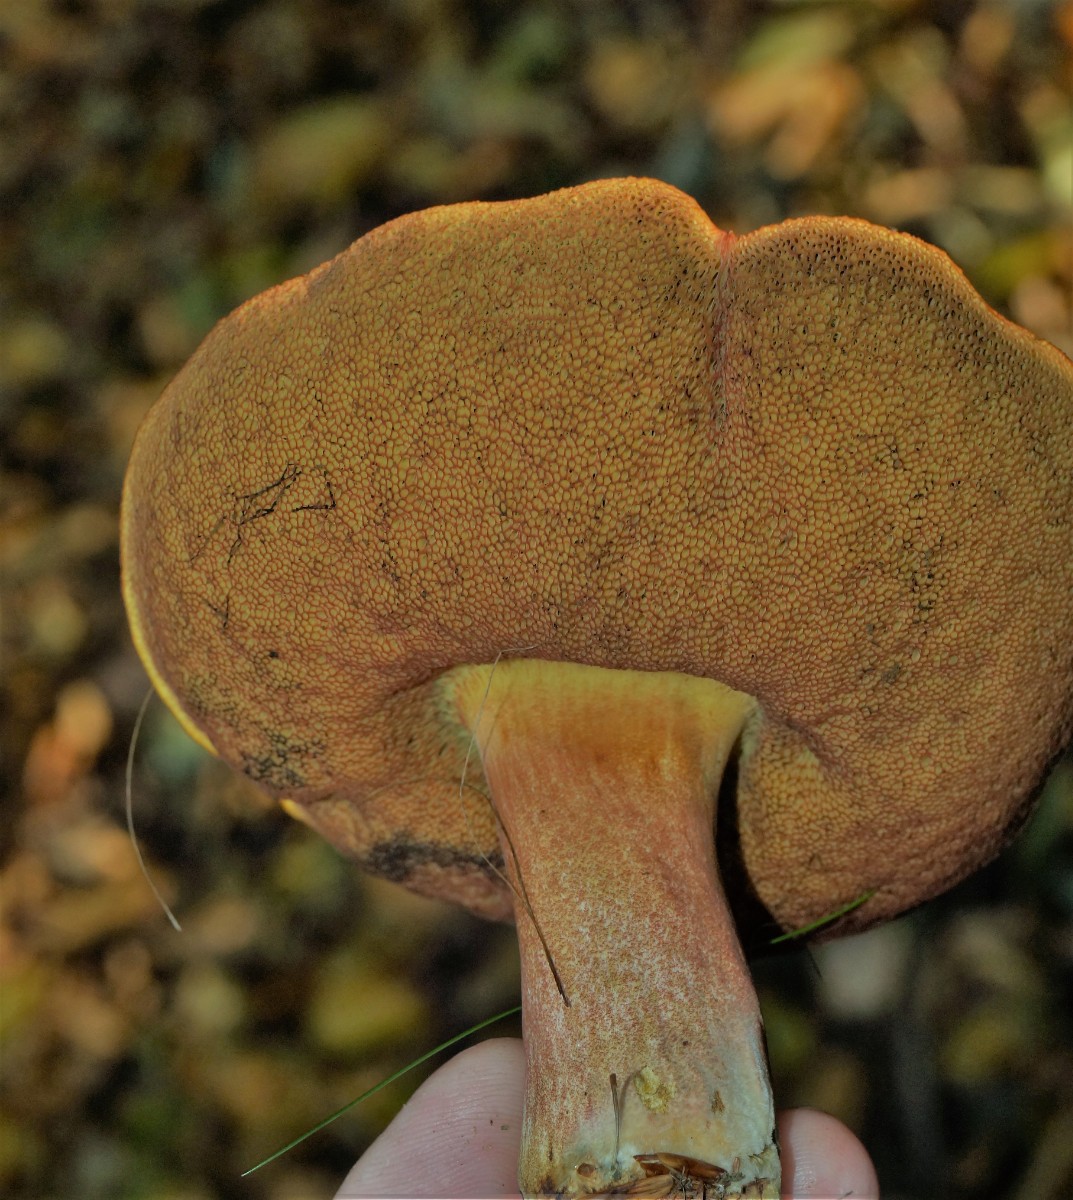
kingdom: Fungi
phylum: Basidiomycota
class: Agaricomycetes
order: Boletales
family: Boletaceae
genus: Neoboletus
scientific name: Neoboletus erythropus
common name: punktstokket indigorørhat
